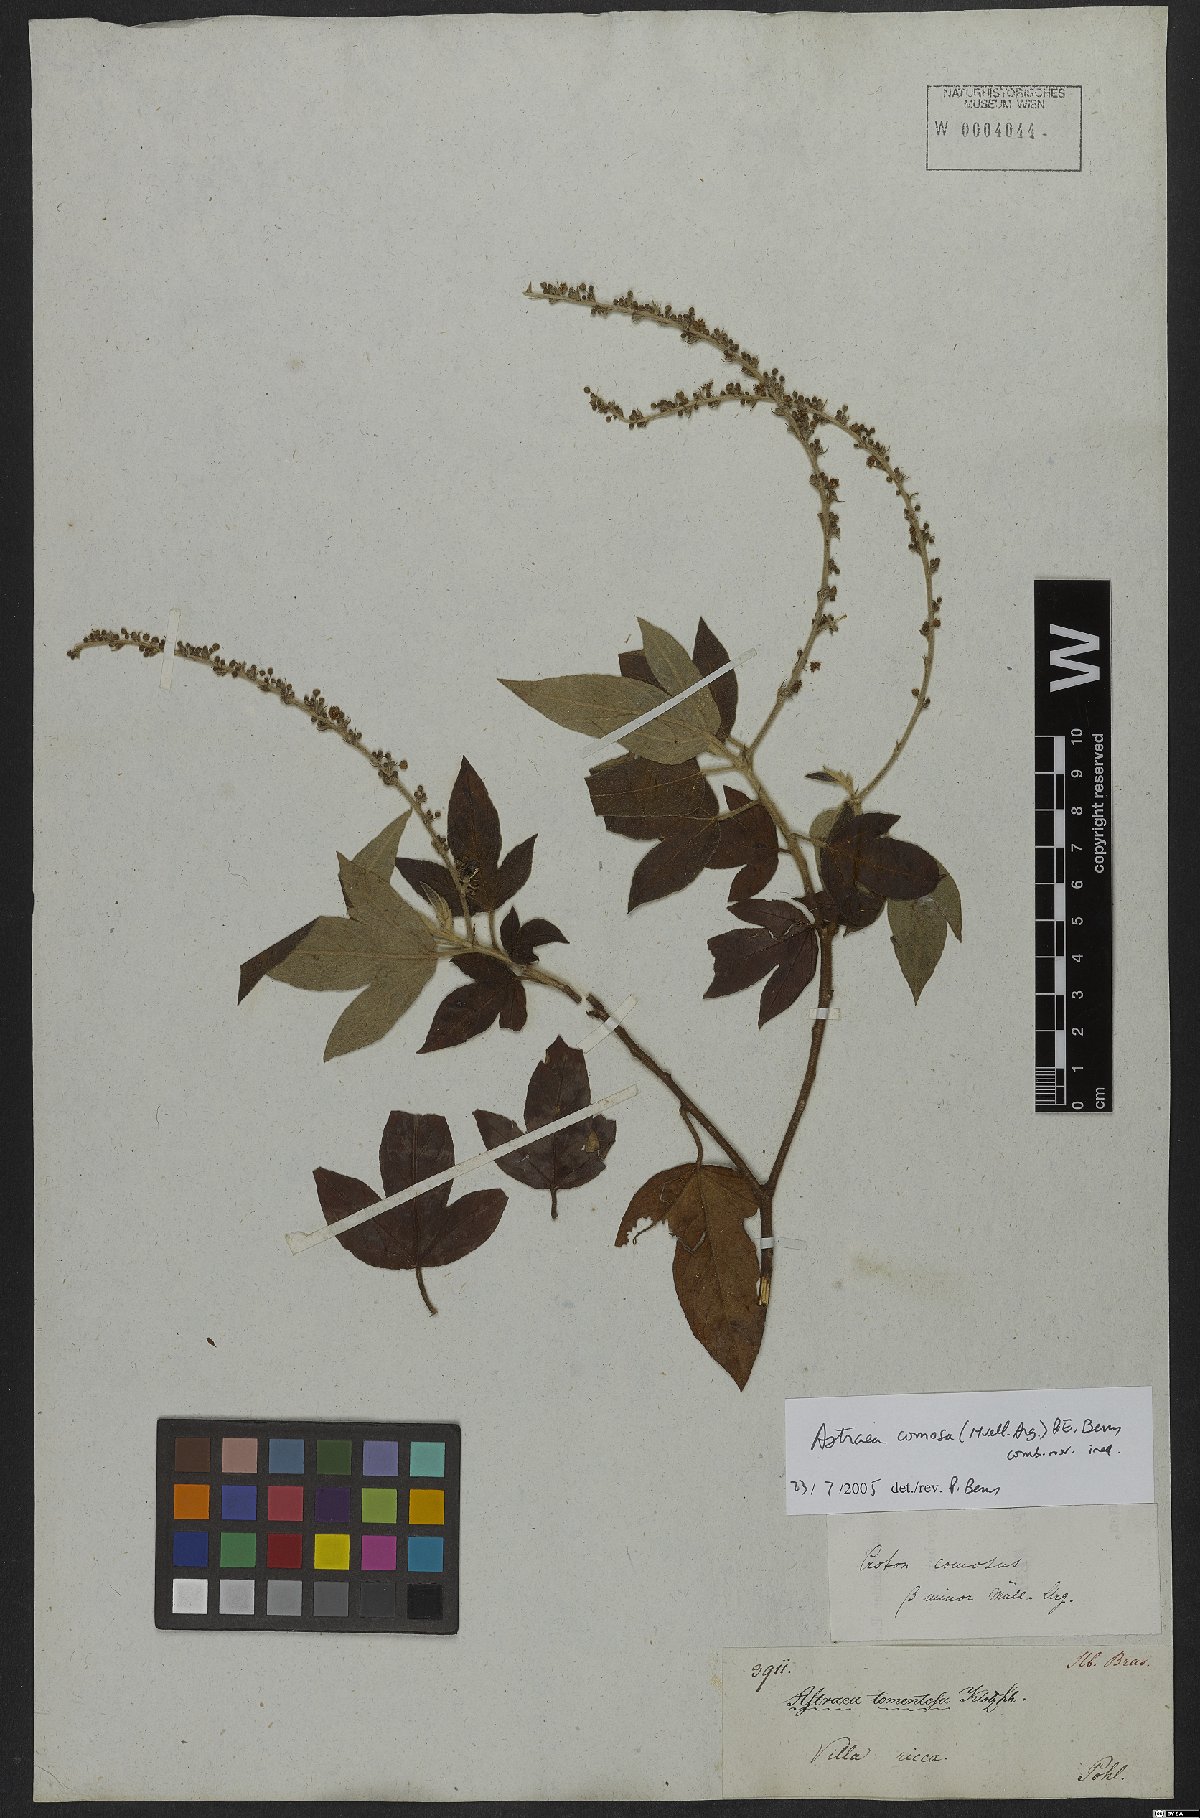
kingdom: Plantae
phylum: Tracheophyta
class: Magnoliopsida
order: Malpighiales
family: Euphorbiaceae
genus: Astraea
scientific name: Astraea comosa
